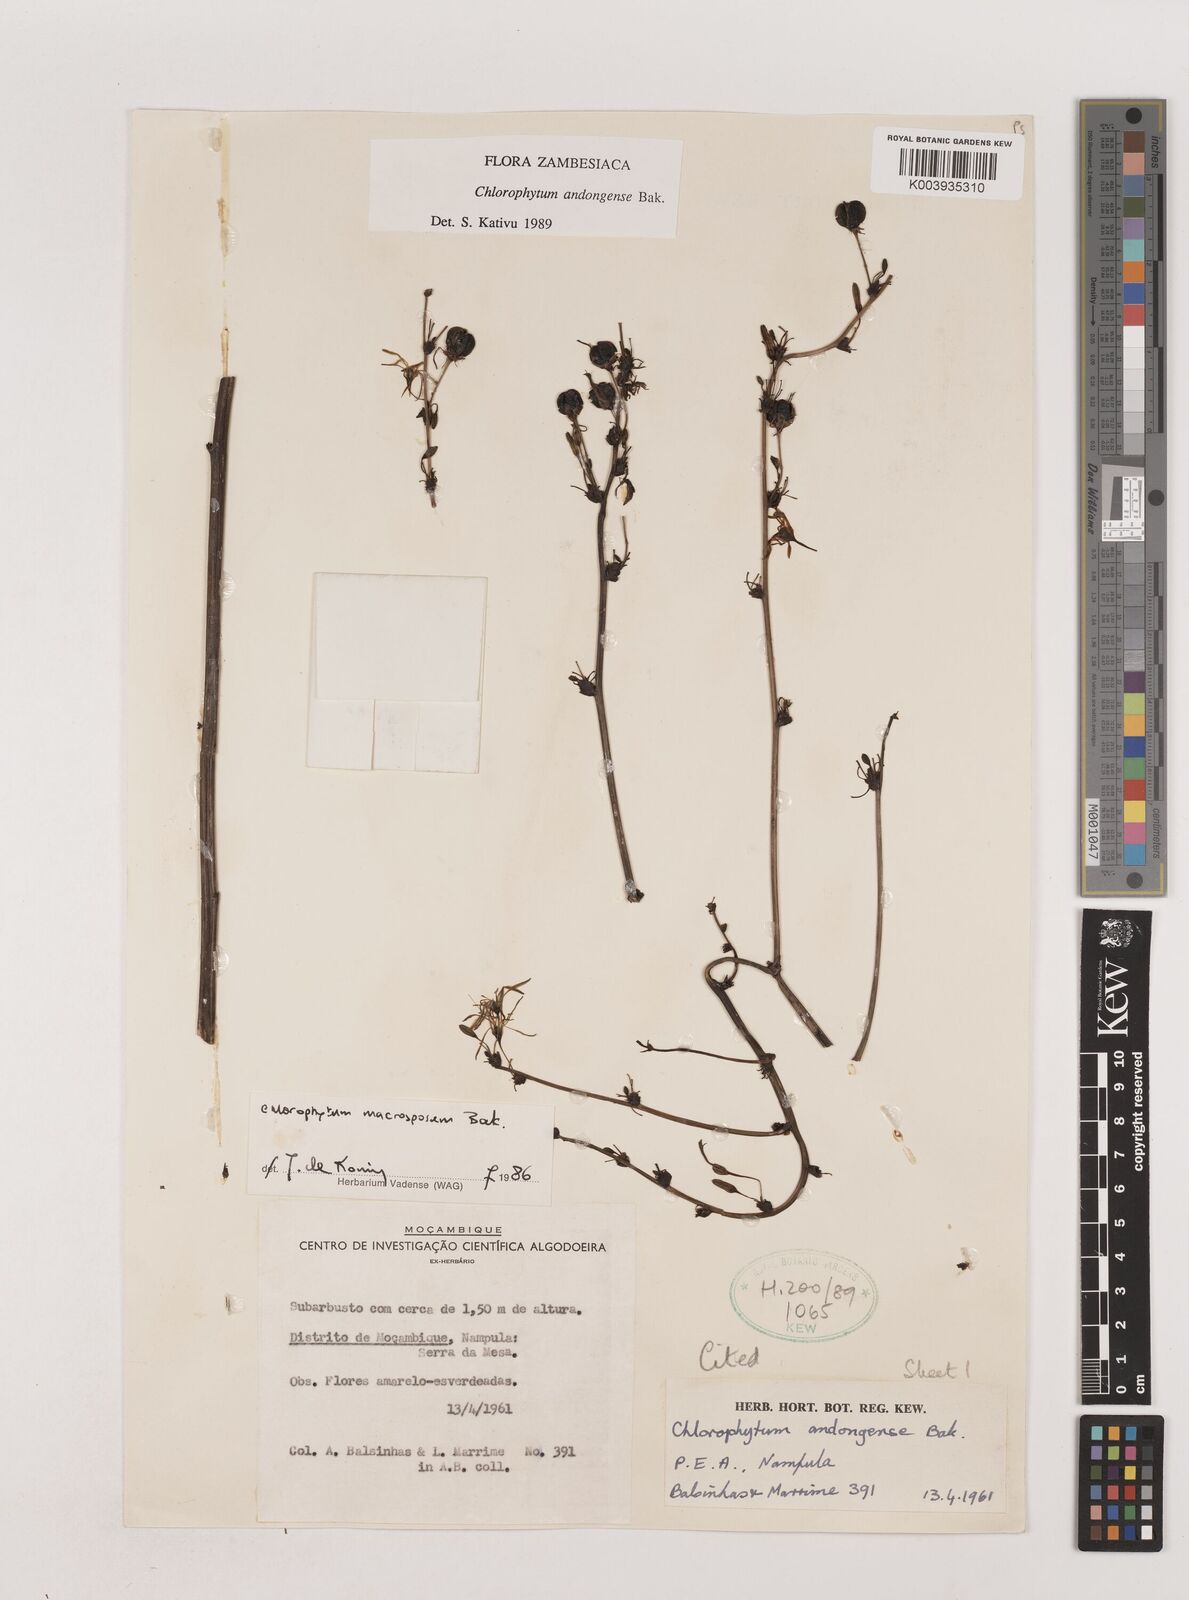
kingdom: Plantae
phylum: Tracheophyta
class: Liliopsida
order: Asparagales
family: Asparagaceae
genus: Chlorophytum
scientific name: Chlorophytum andongense
